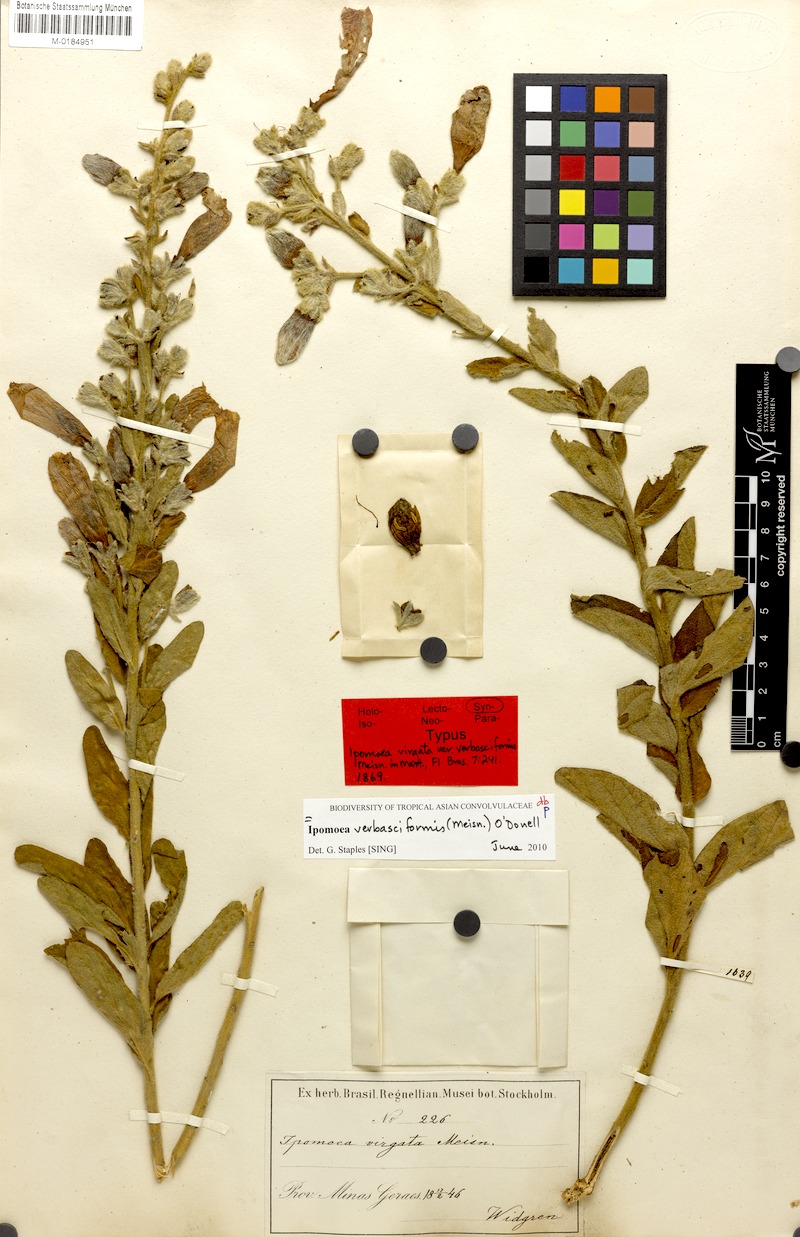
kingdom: Plantae
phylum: Tracheophyta
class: Magnoliopsida
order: Solanales
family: Convolvulaceae
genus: Ipomoea
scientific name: Ipomoea verbasciformis
